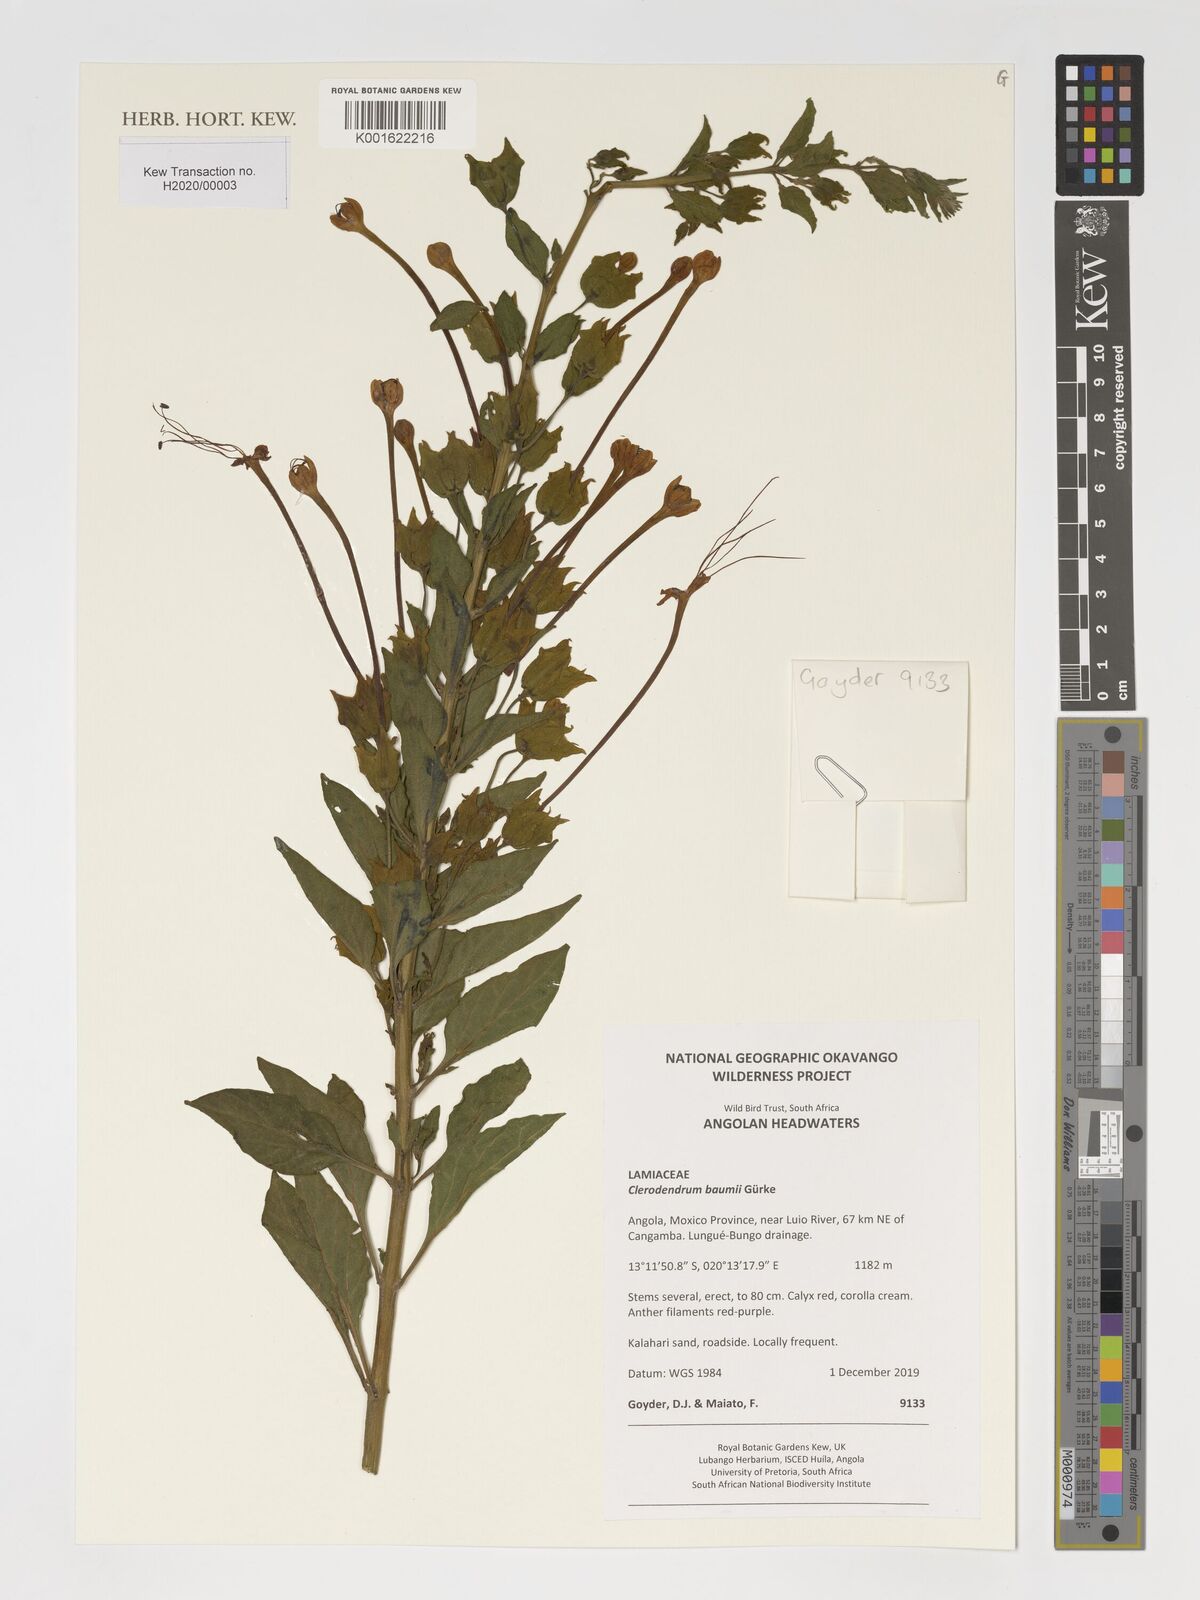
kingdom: Plantae
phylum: Tracheophyta
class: Magnoliopsida
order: Lamiales
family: Lamiaceae
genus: Clerodendrum
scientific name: Clerodendrum baumii
